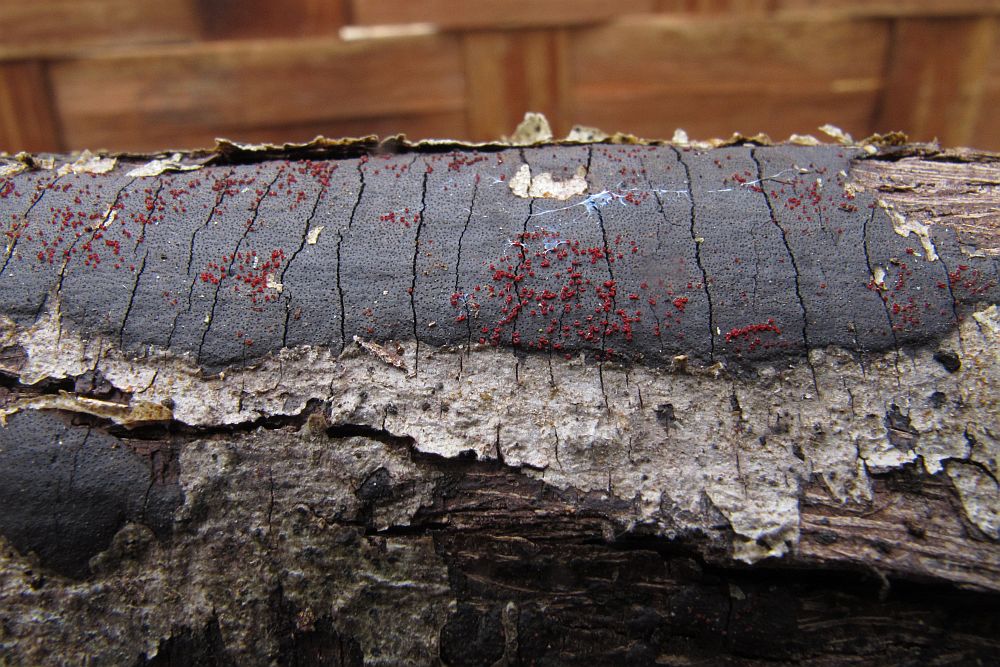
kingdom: Fungi
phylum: Ascomycota
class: Sordariomycetes
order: Hypocreales
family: Nectriaceae
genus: Dialonectria
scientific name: Dialonectria episphaeria
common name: kulskorpe-cinnobersvamp
